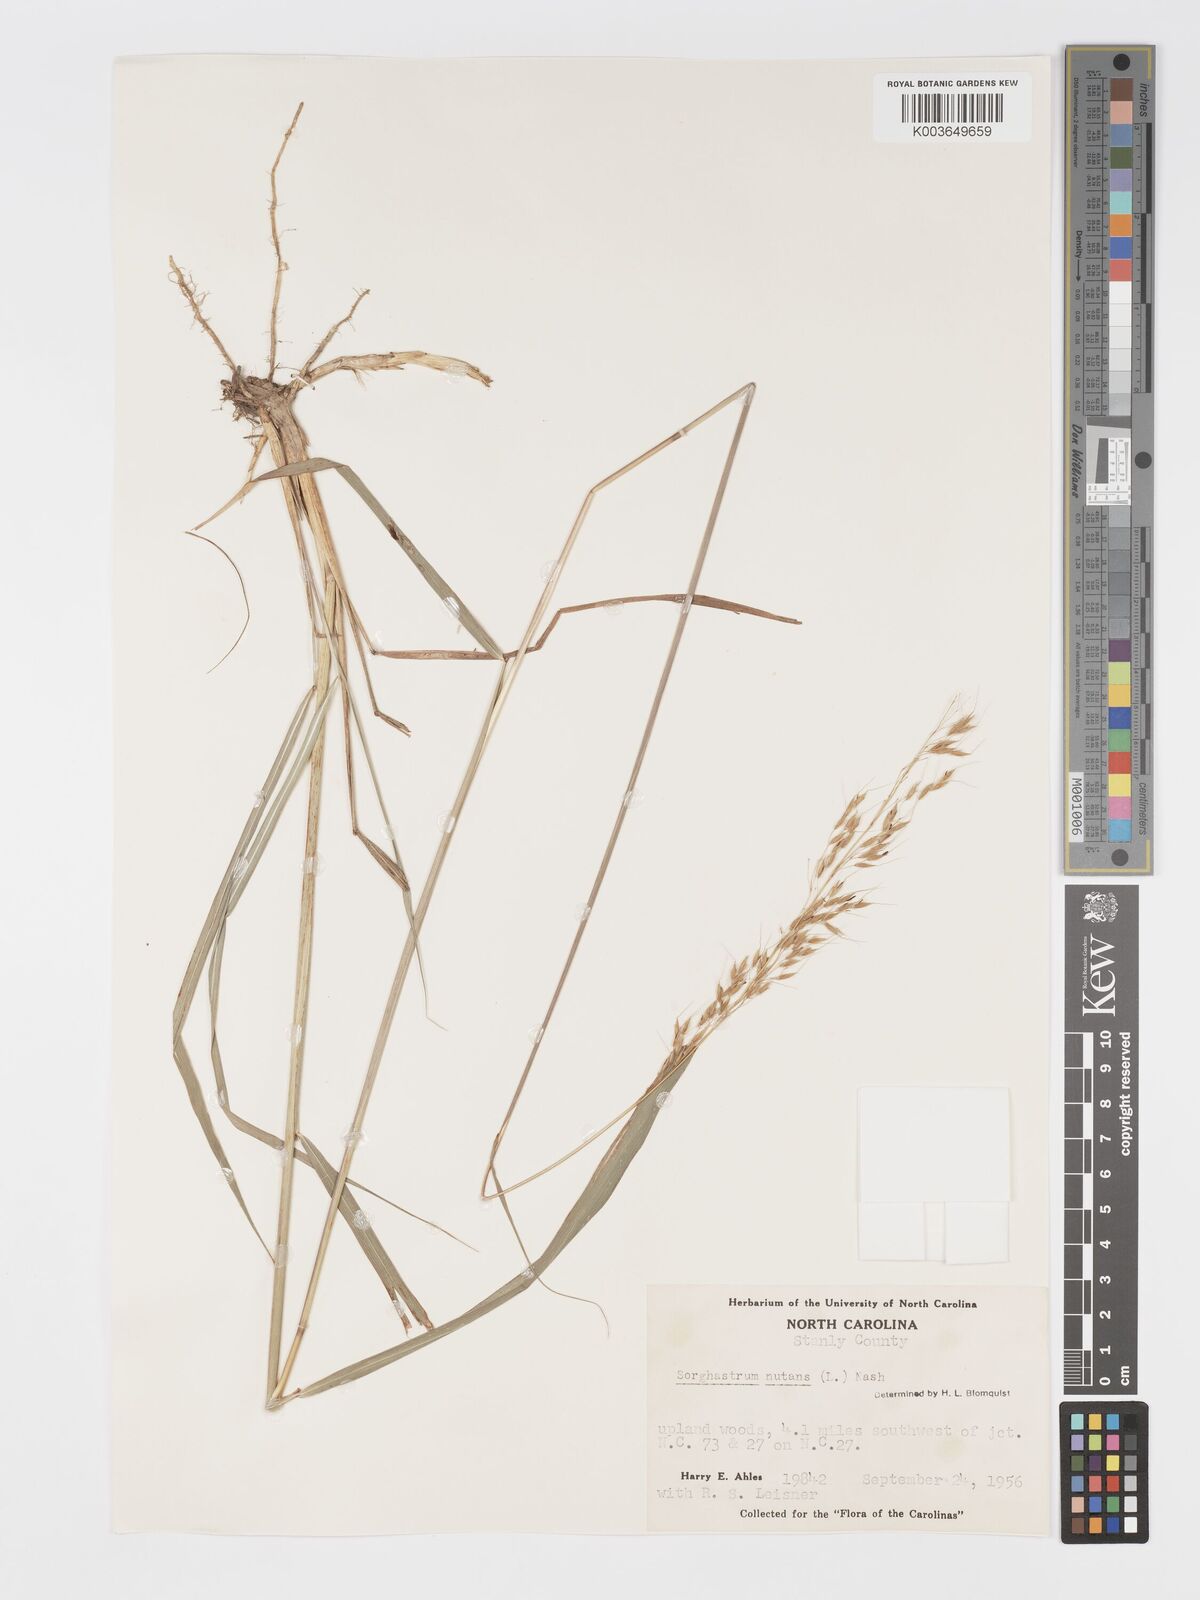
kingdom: Plantae
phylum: Tracheophyta
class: Liliopsida
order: Poales
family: Poaceae
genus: Sorghastrum
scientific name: Sorghastrum nutans
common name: Indian grass
